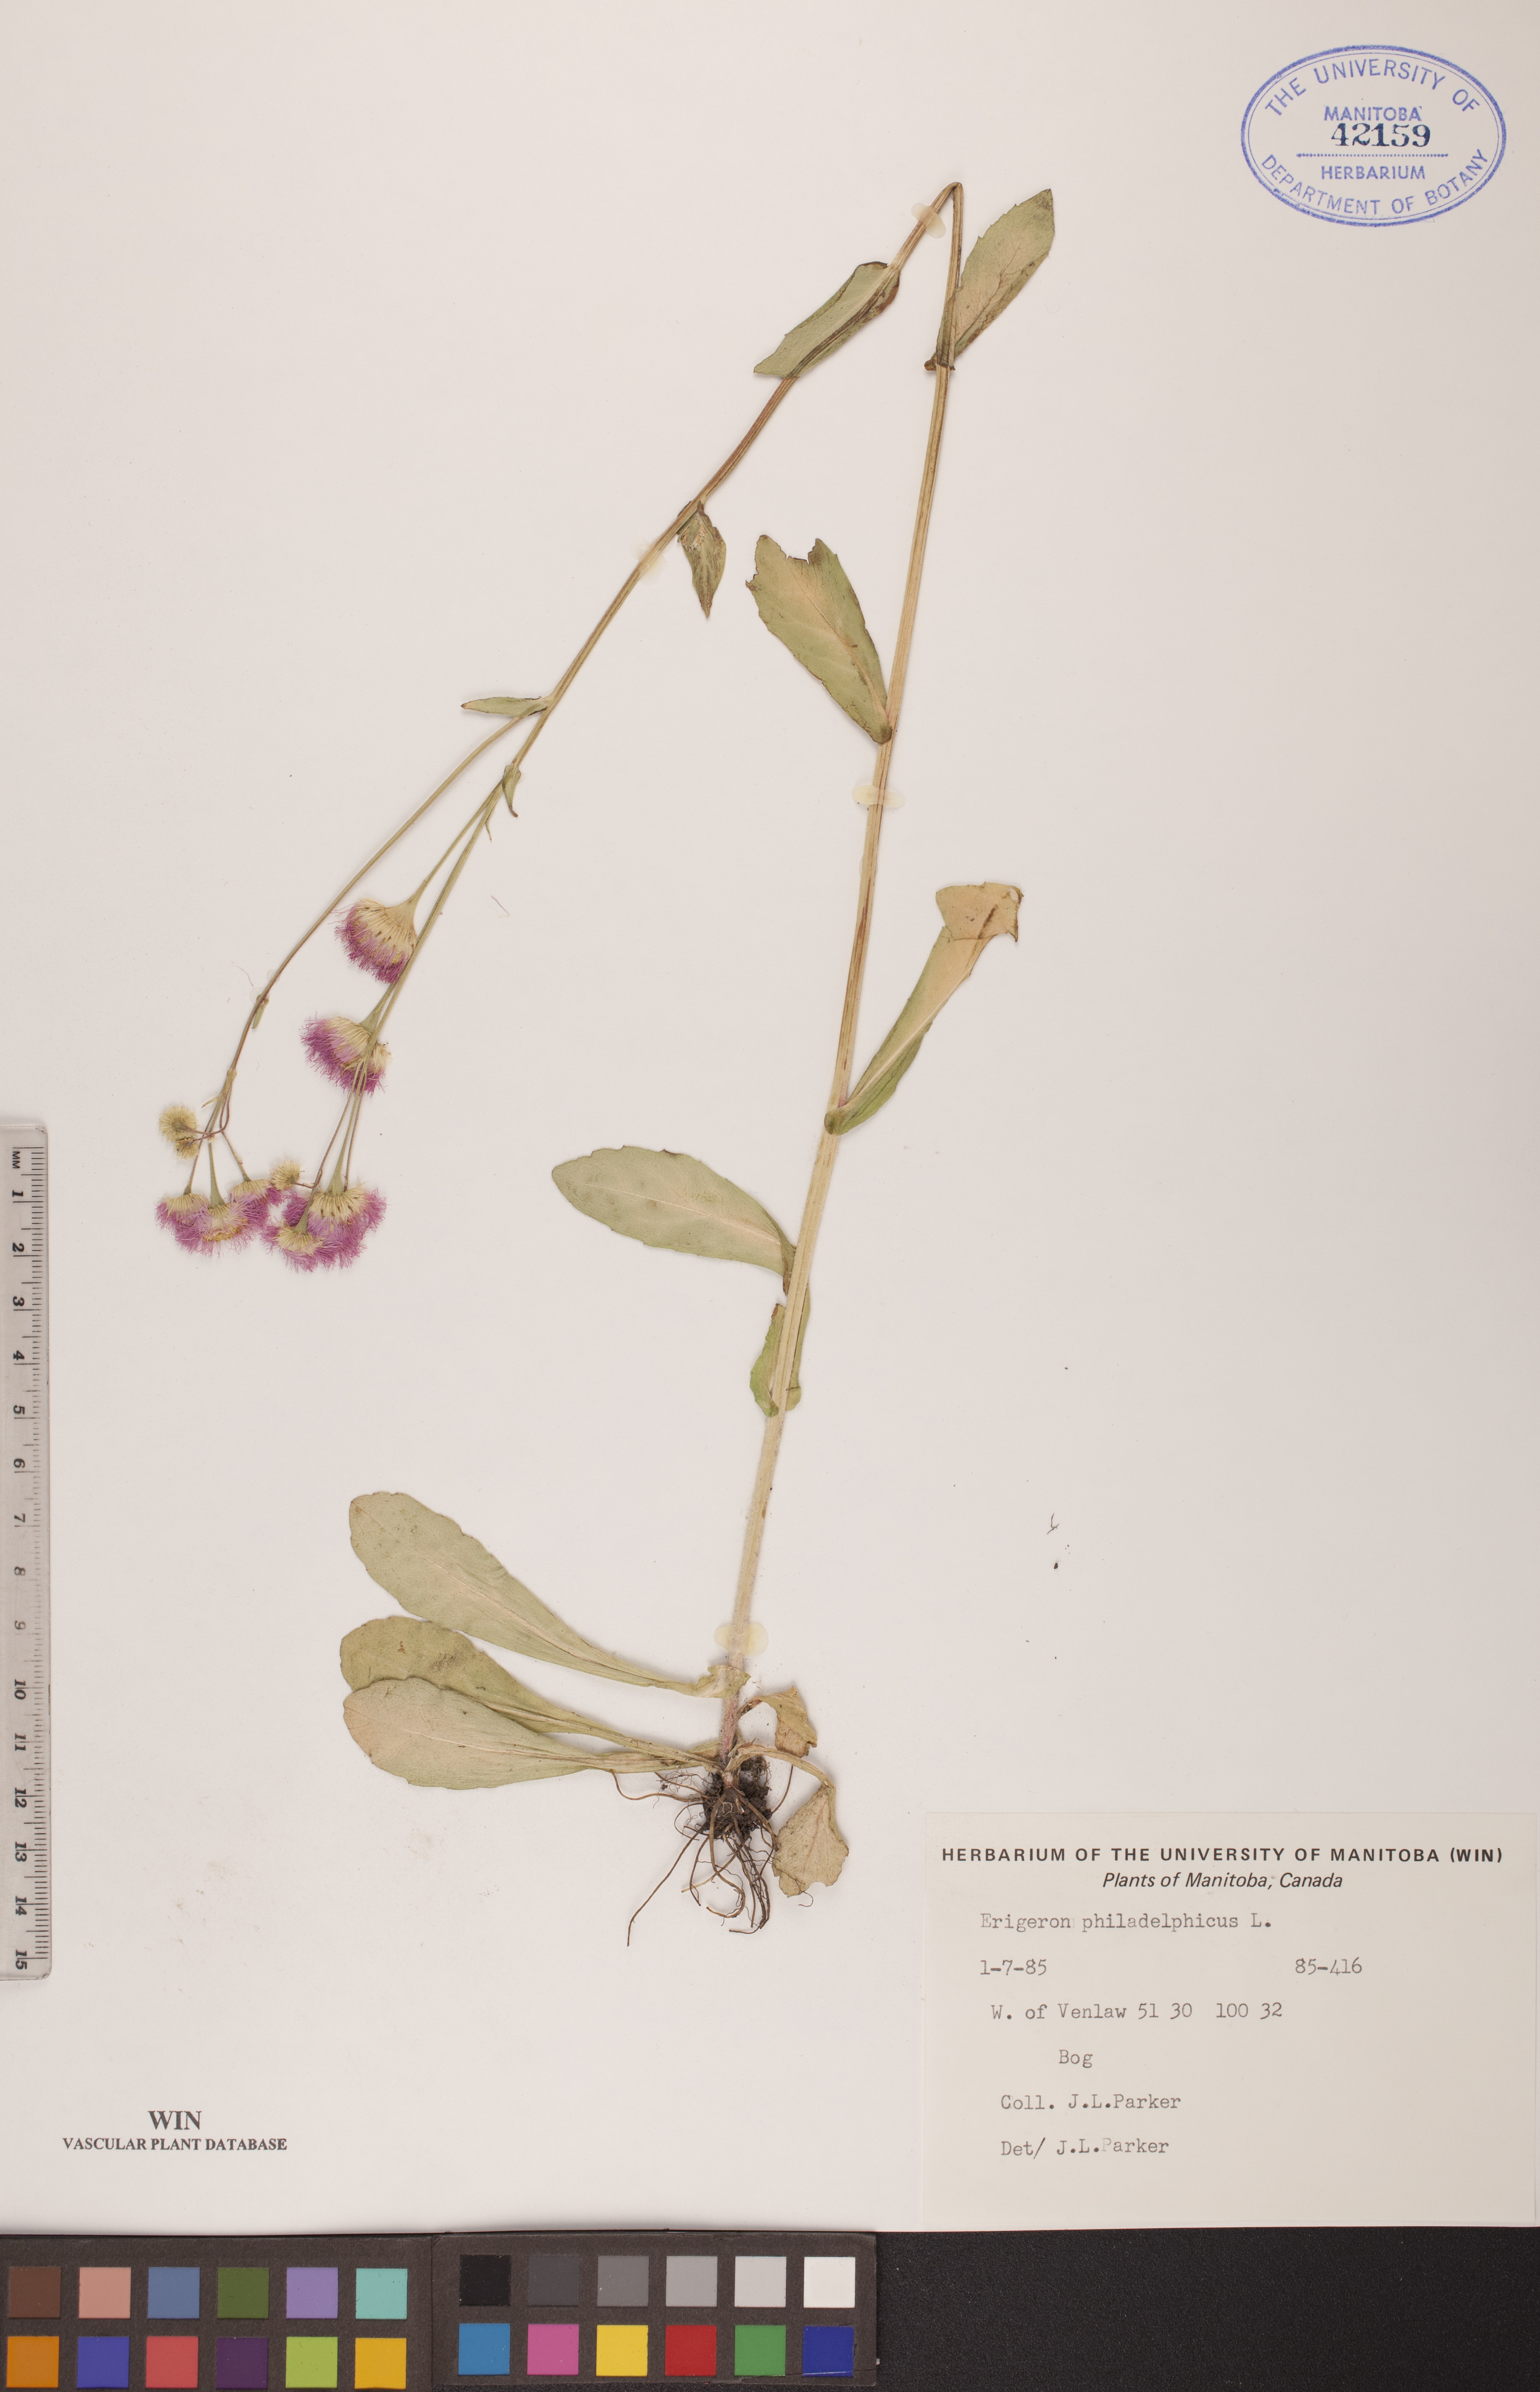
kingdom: Plantae
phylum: Tracheophyta
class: Magnoliopsida
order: Asterales
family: Asteraceae
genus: Erigeron
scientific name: Erigeron philadelphicus
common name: Robin's-plantain
